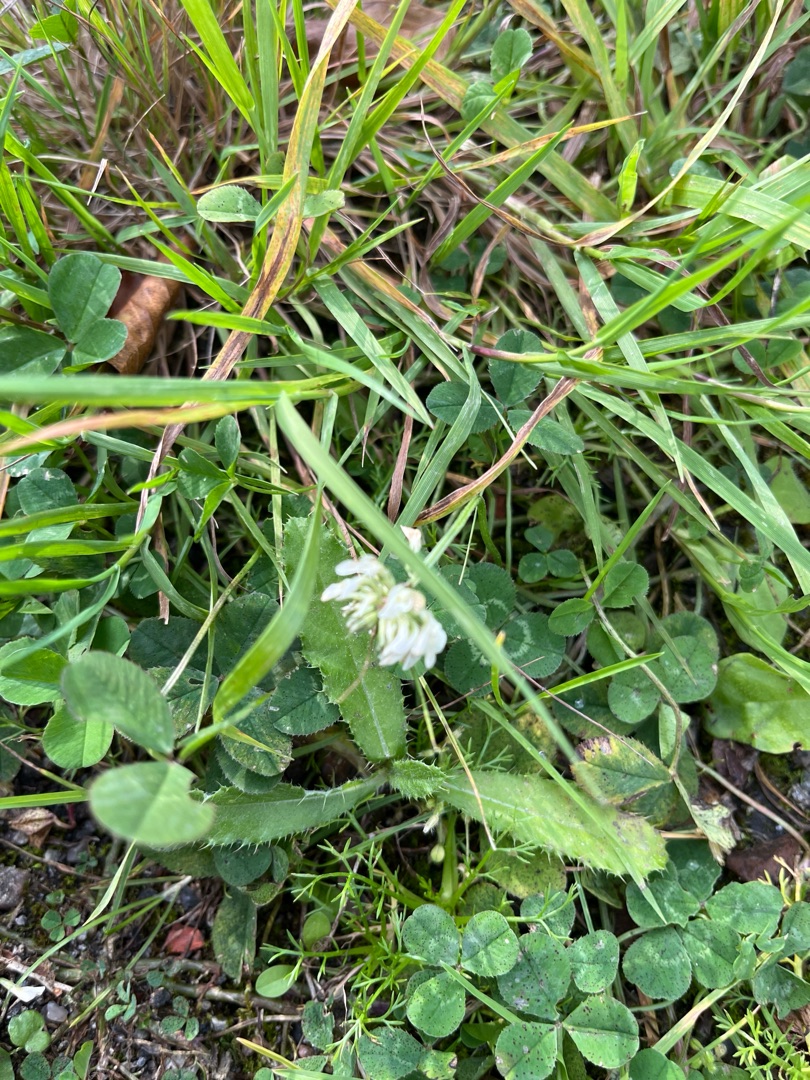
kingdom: Plantae
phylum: Tracheophyta
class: Magnoliopsida
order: Fabales
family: Fabaceae
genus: Trifolium
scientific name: Trifolium repens
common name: Hvid-kløver
